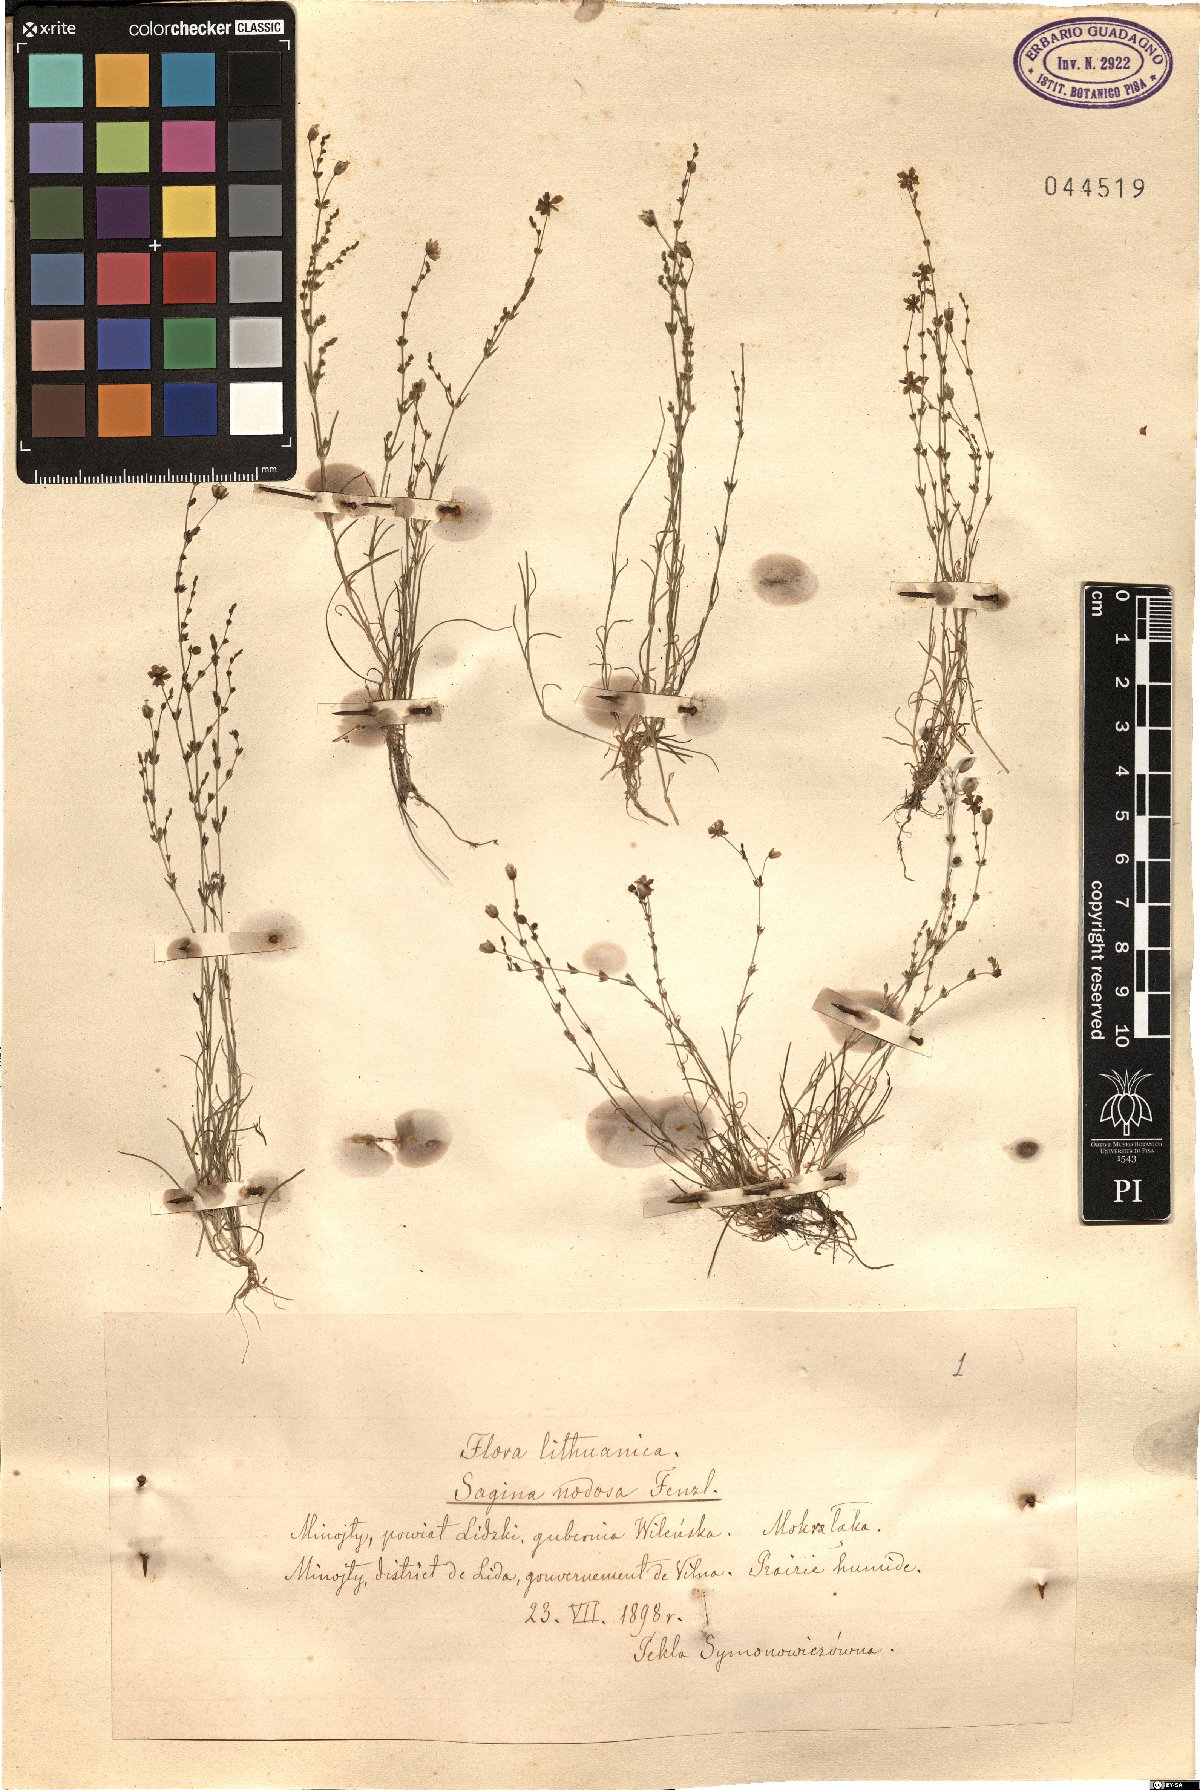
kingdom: Plantae
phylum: Tracheophyta
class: Magnoliopsida
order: Caryophyllales
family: Caryophyllaceae
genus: Sagina
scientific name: Sagina nodosa
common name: Knotted pearlwort
